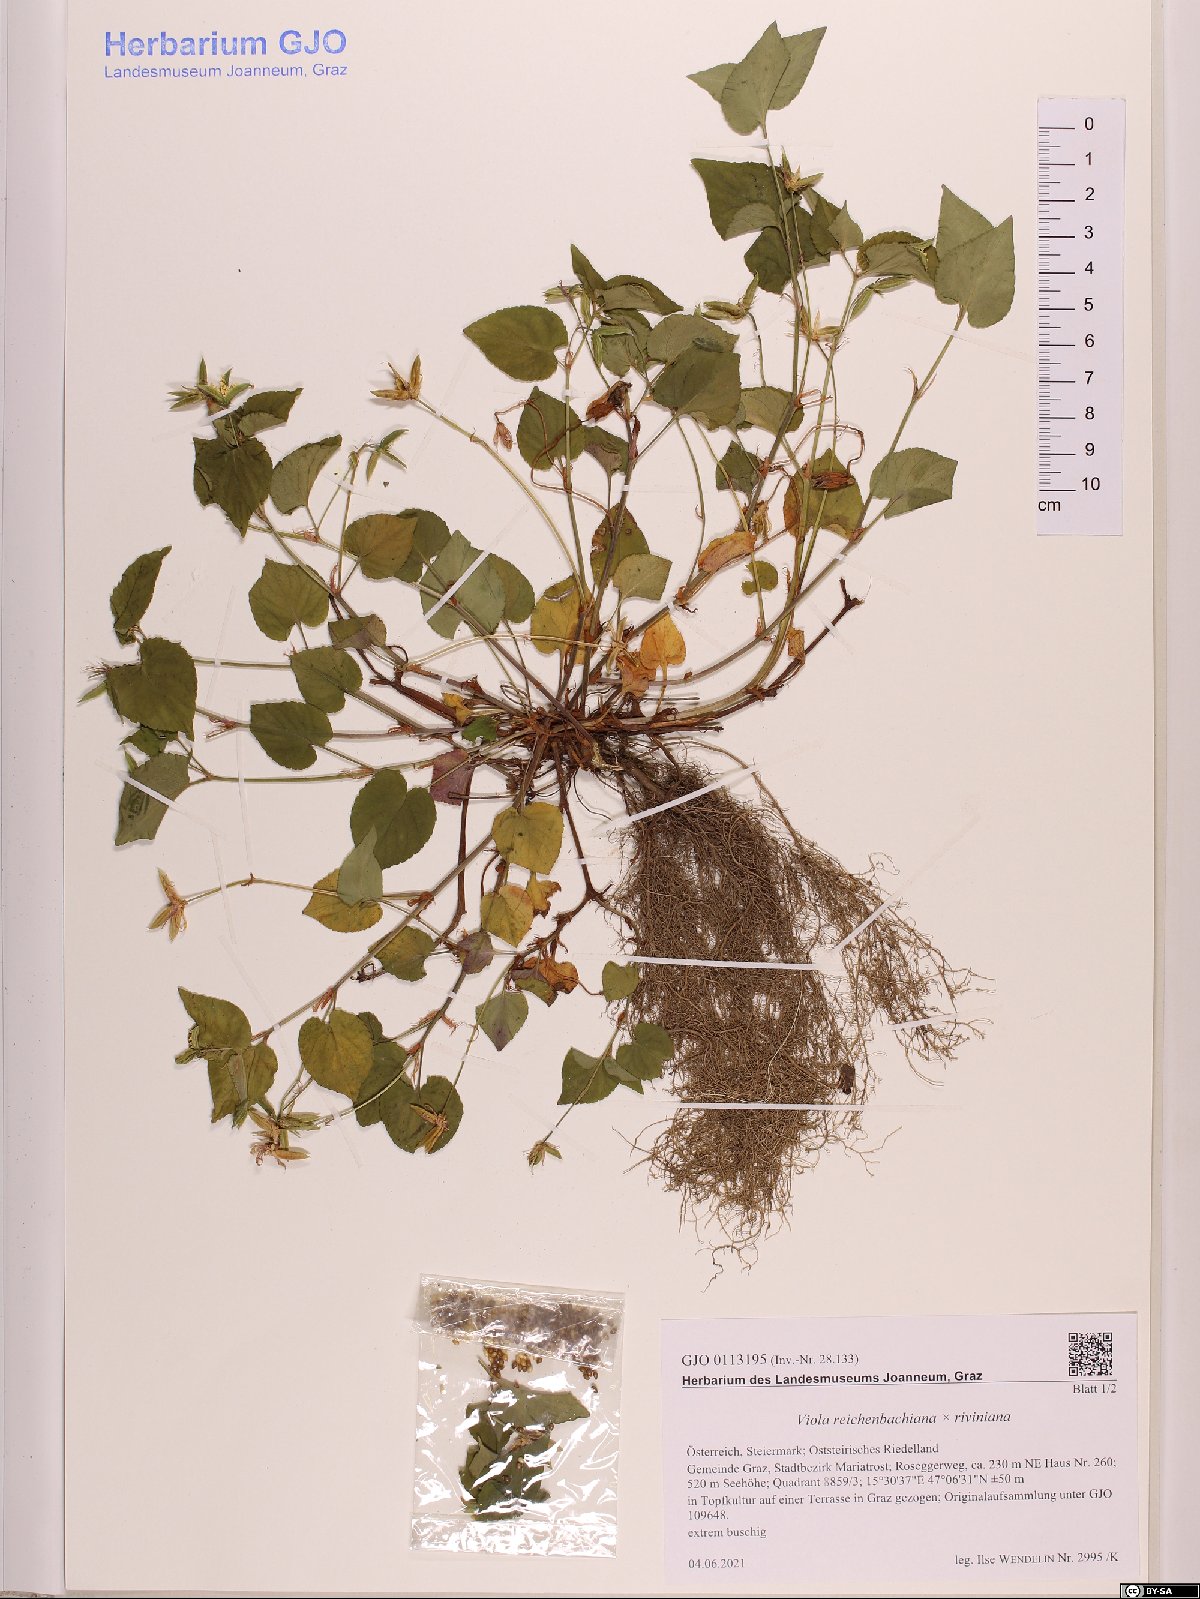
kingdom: Plantae
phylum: Tracheophyta
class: Magnoliopsida
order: Malpighiales
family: Violaceae
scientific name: Violaceae
